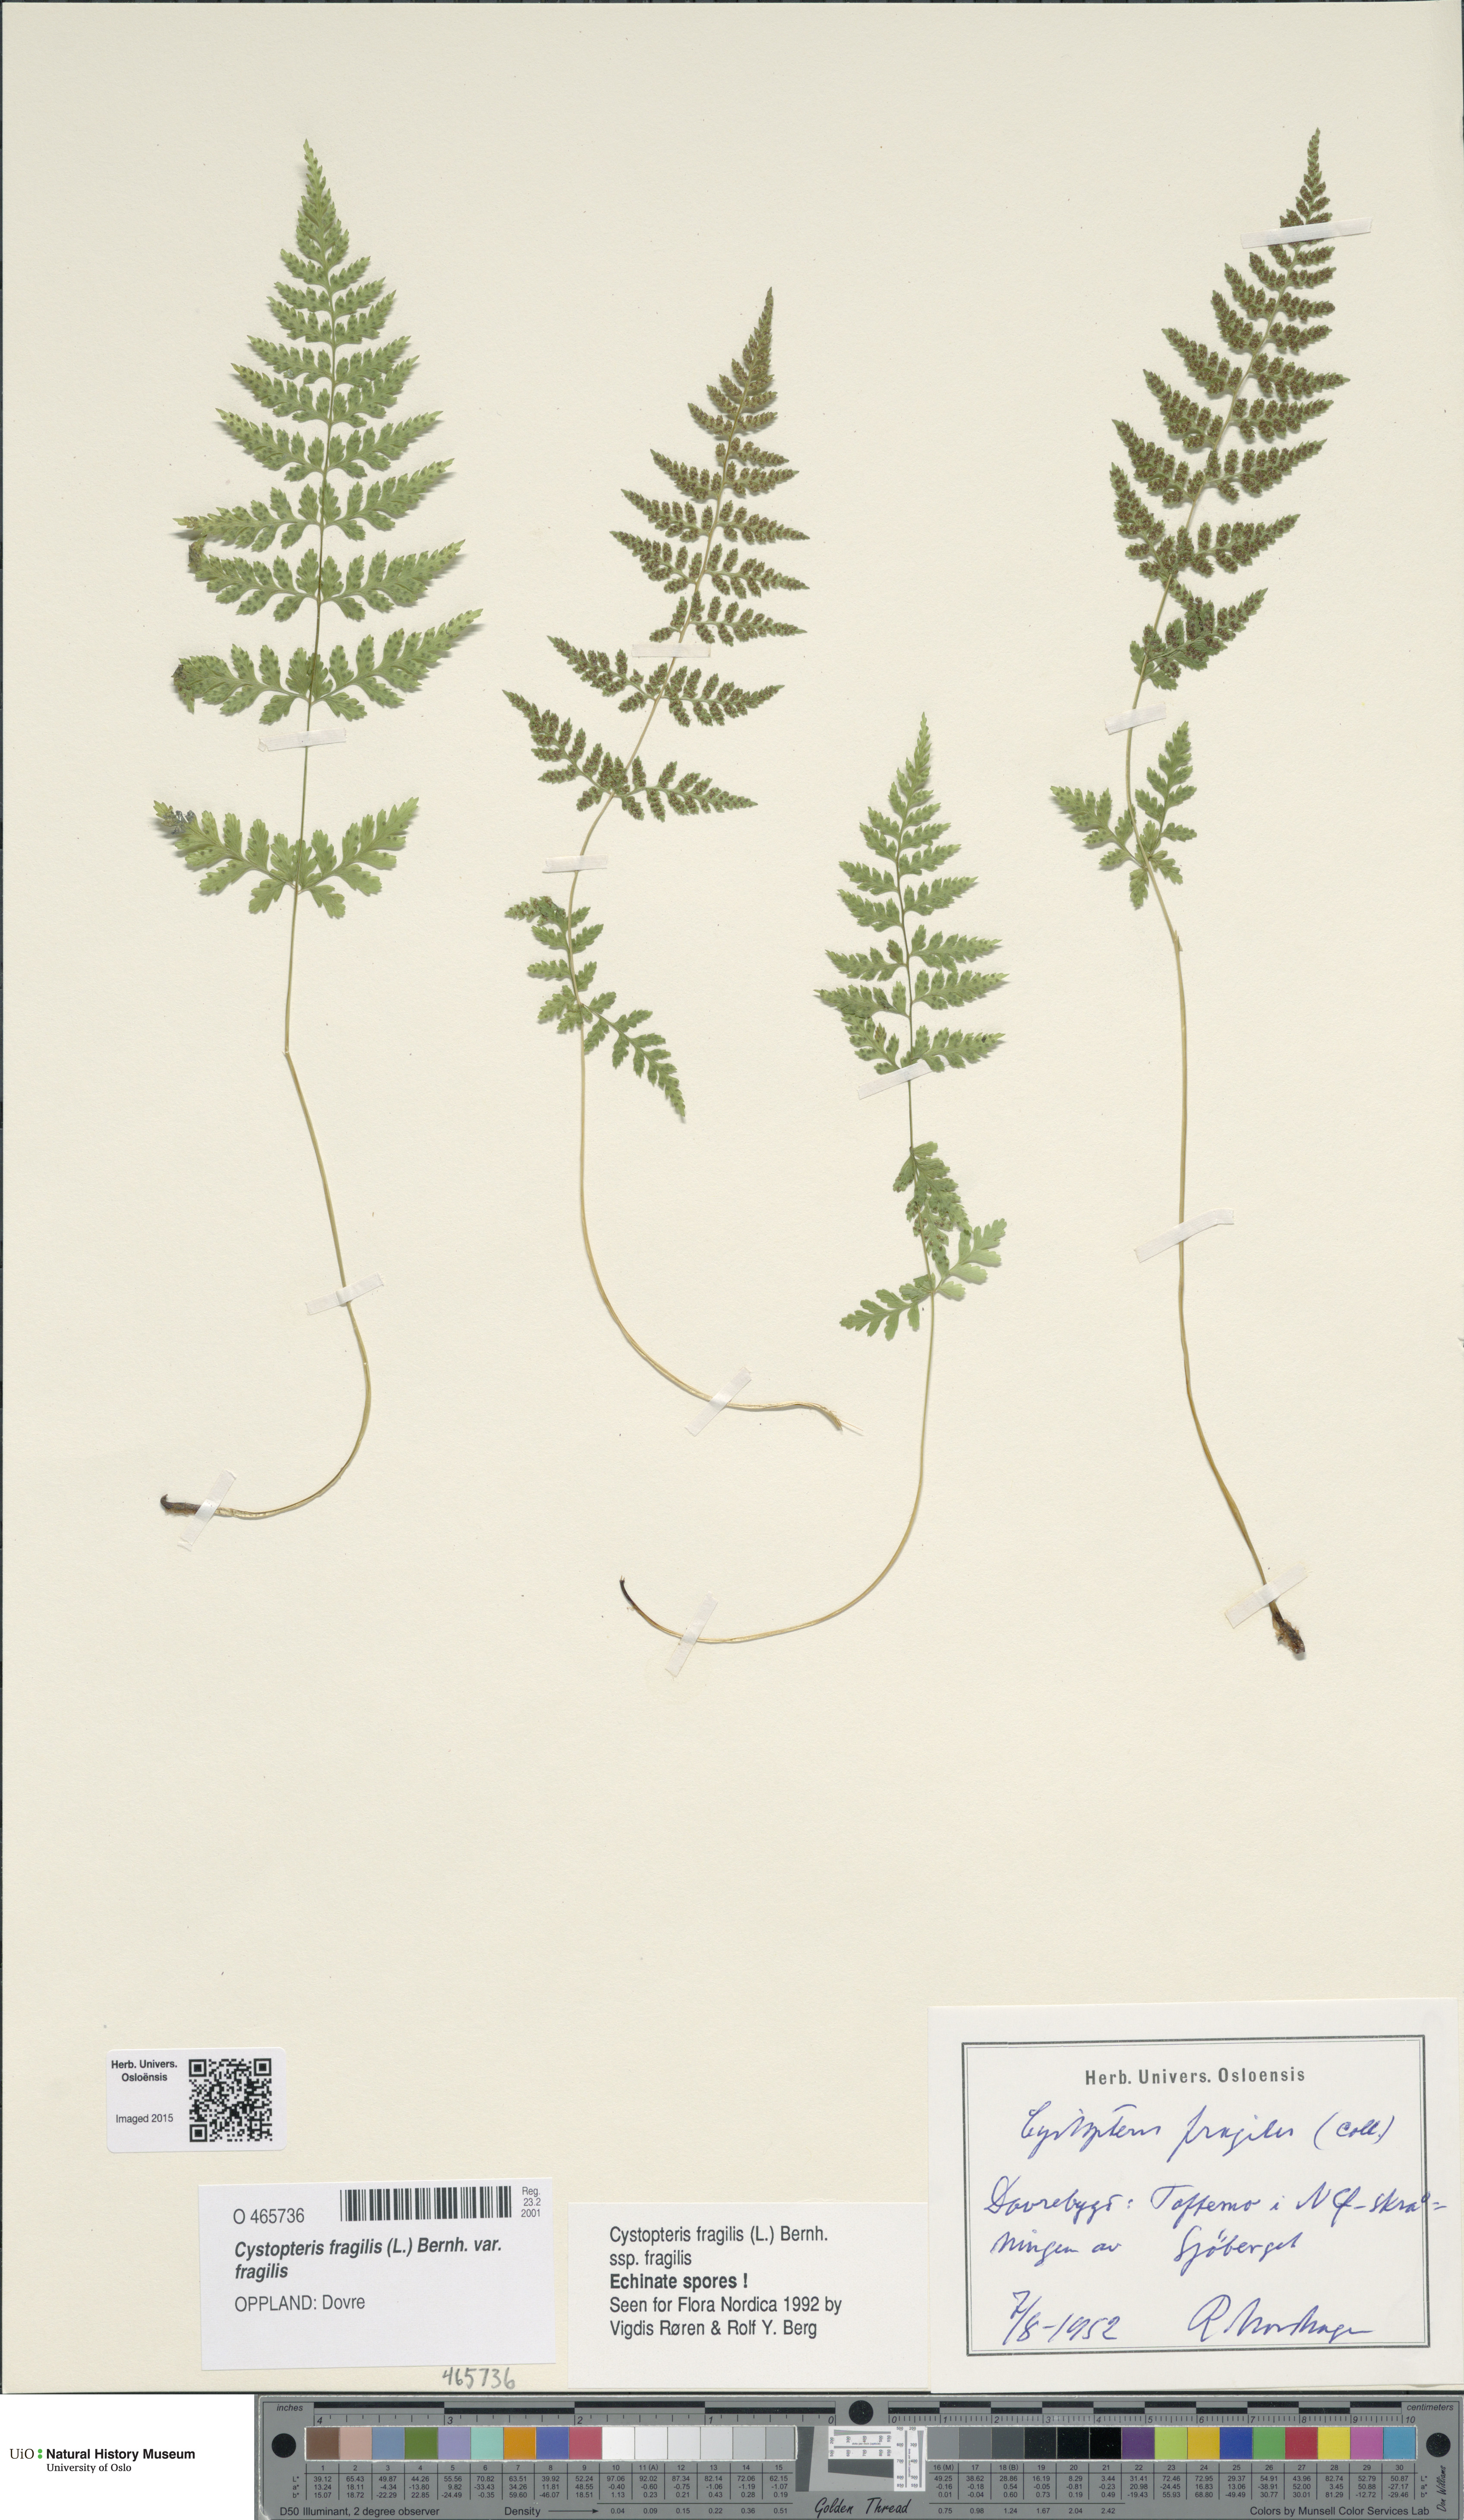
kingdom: Plantae
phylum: Tracheophyta
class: Polypodiopsida
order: Polypodiales
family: Cystopteridaceae
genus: Cystopteris
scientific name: Cystopteris fragilis
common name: Brittle bladder fern
